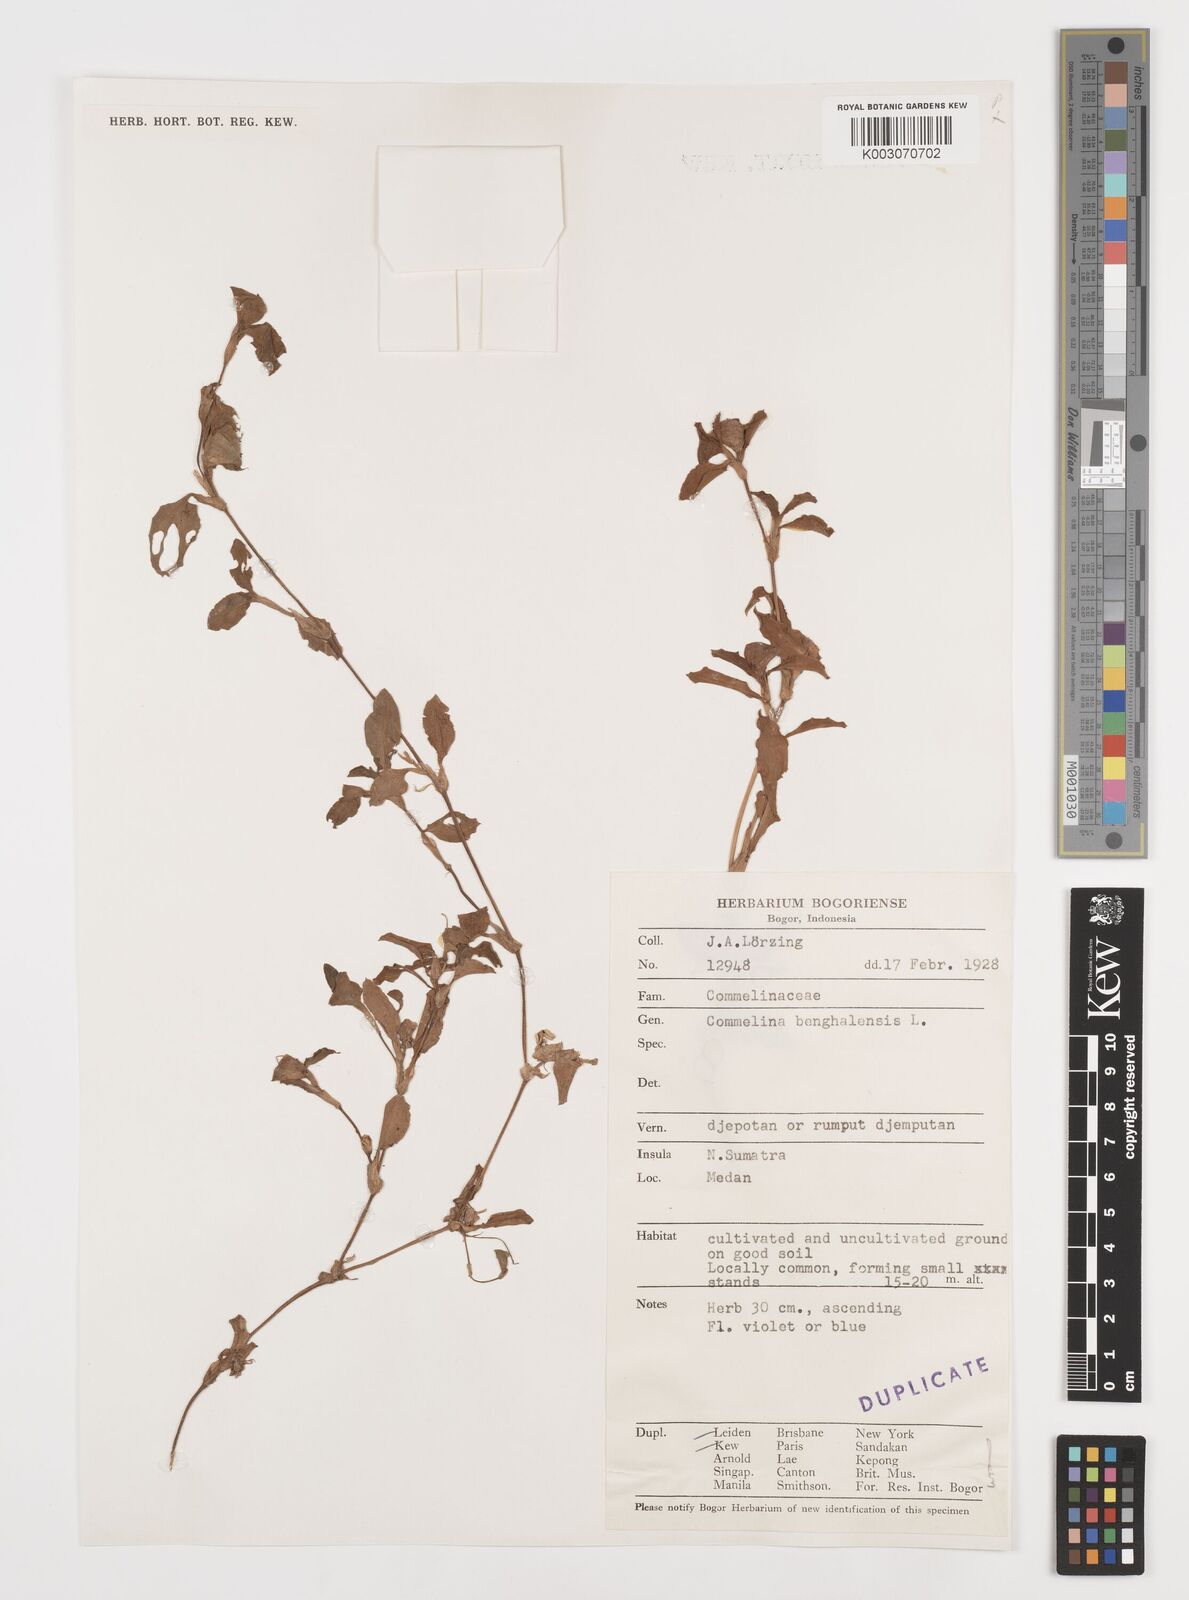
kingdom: Plantae
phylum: Tracheophyta
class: Liliopsida
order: Commelinales
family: Commelinaceae
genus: Commelina
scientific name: Commelina benghalensis
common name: Jio
